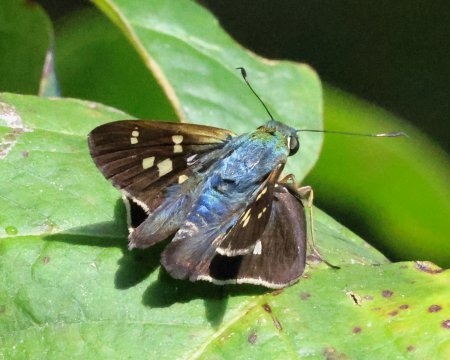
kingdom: Animalia
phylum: Arthropoda
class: Insecta
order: Lepidoptera
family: Hesperiidae
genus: Niconiades
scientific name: Niconiades xanthaphes
